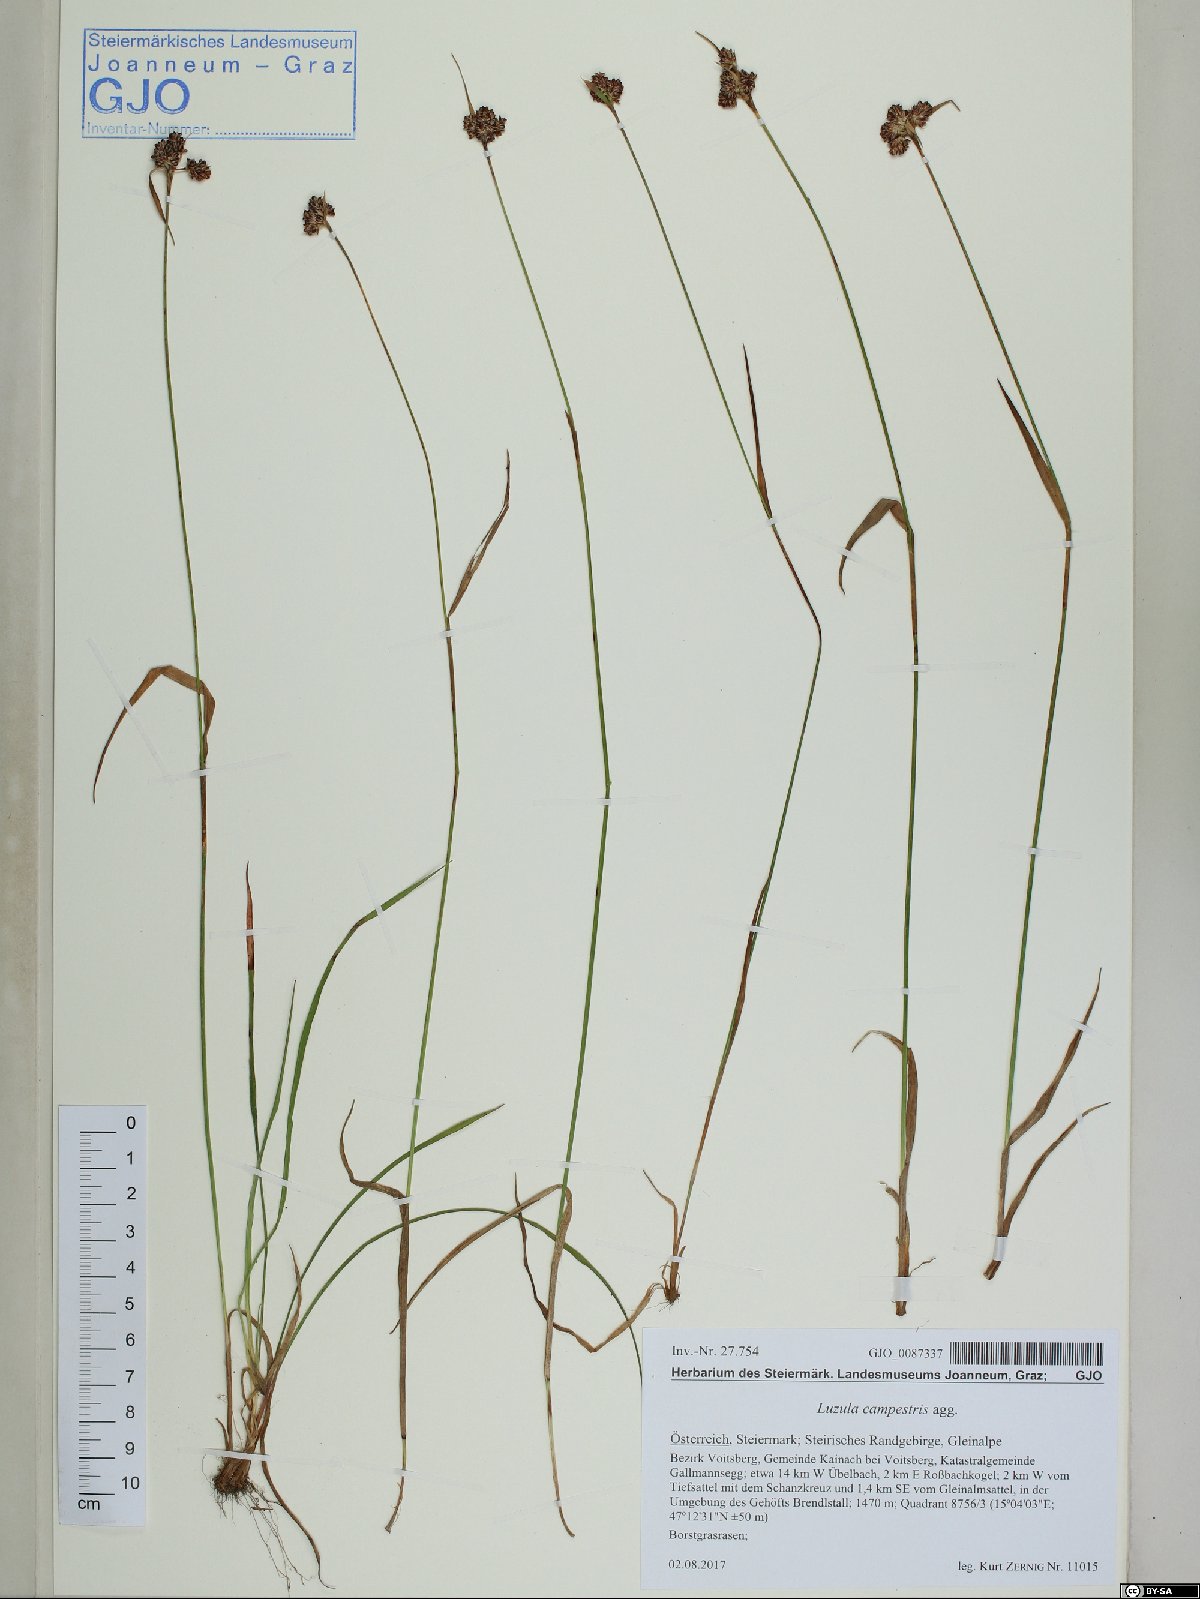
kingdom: Plantae
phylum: Tracheophyta
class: Liliopsida
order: Poales
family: Juncaceae
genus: Luzula
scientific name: Luzula campestris
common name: Field wood-rush
